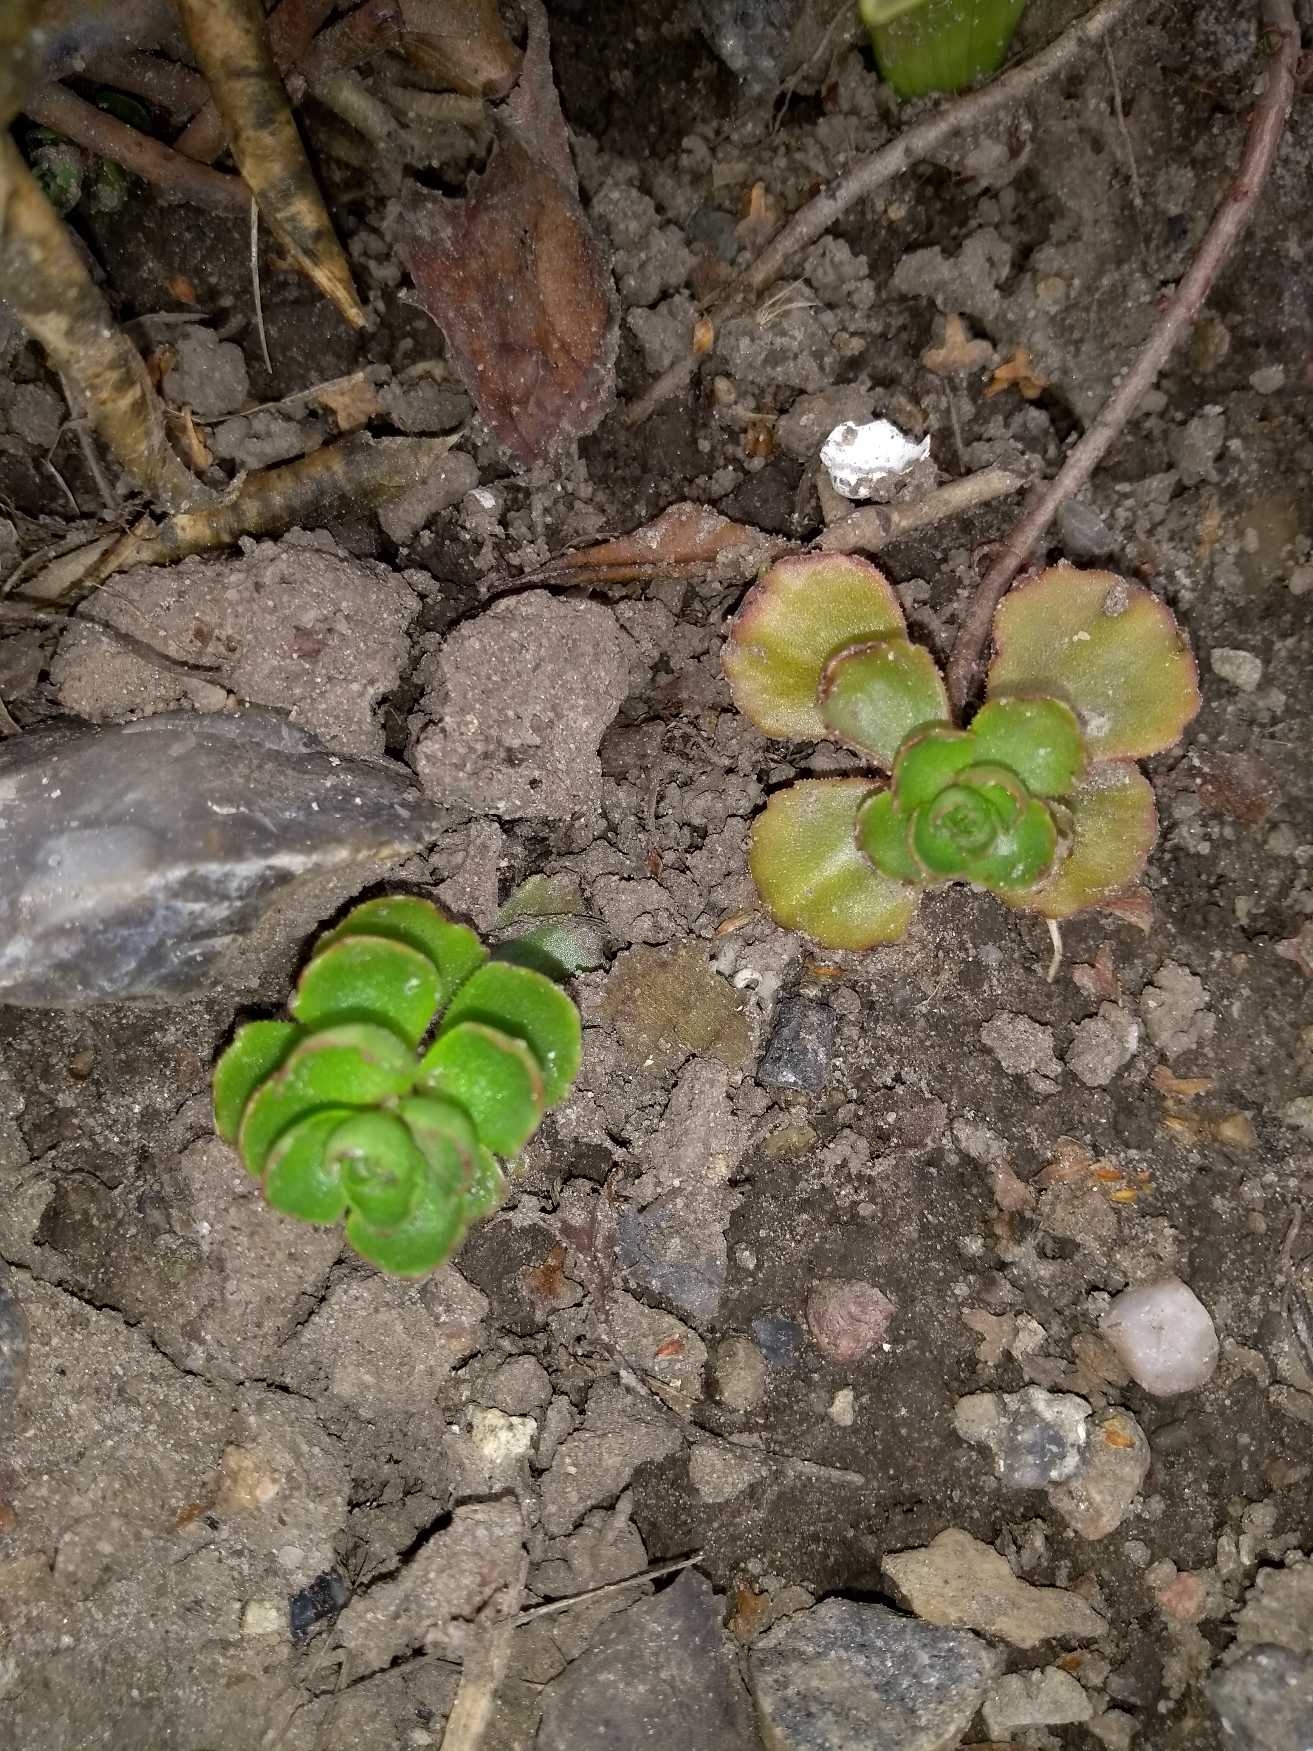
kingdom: Plantae
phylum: Tracheophyta
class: Magnoliopsida
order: Saxifragales
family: Crassulaceae
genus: Phedimus
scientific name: Phedimus spurius
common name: Rød stenurt
